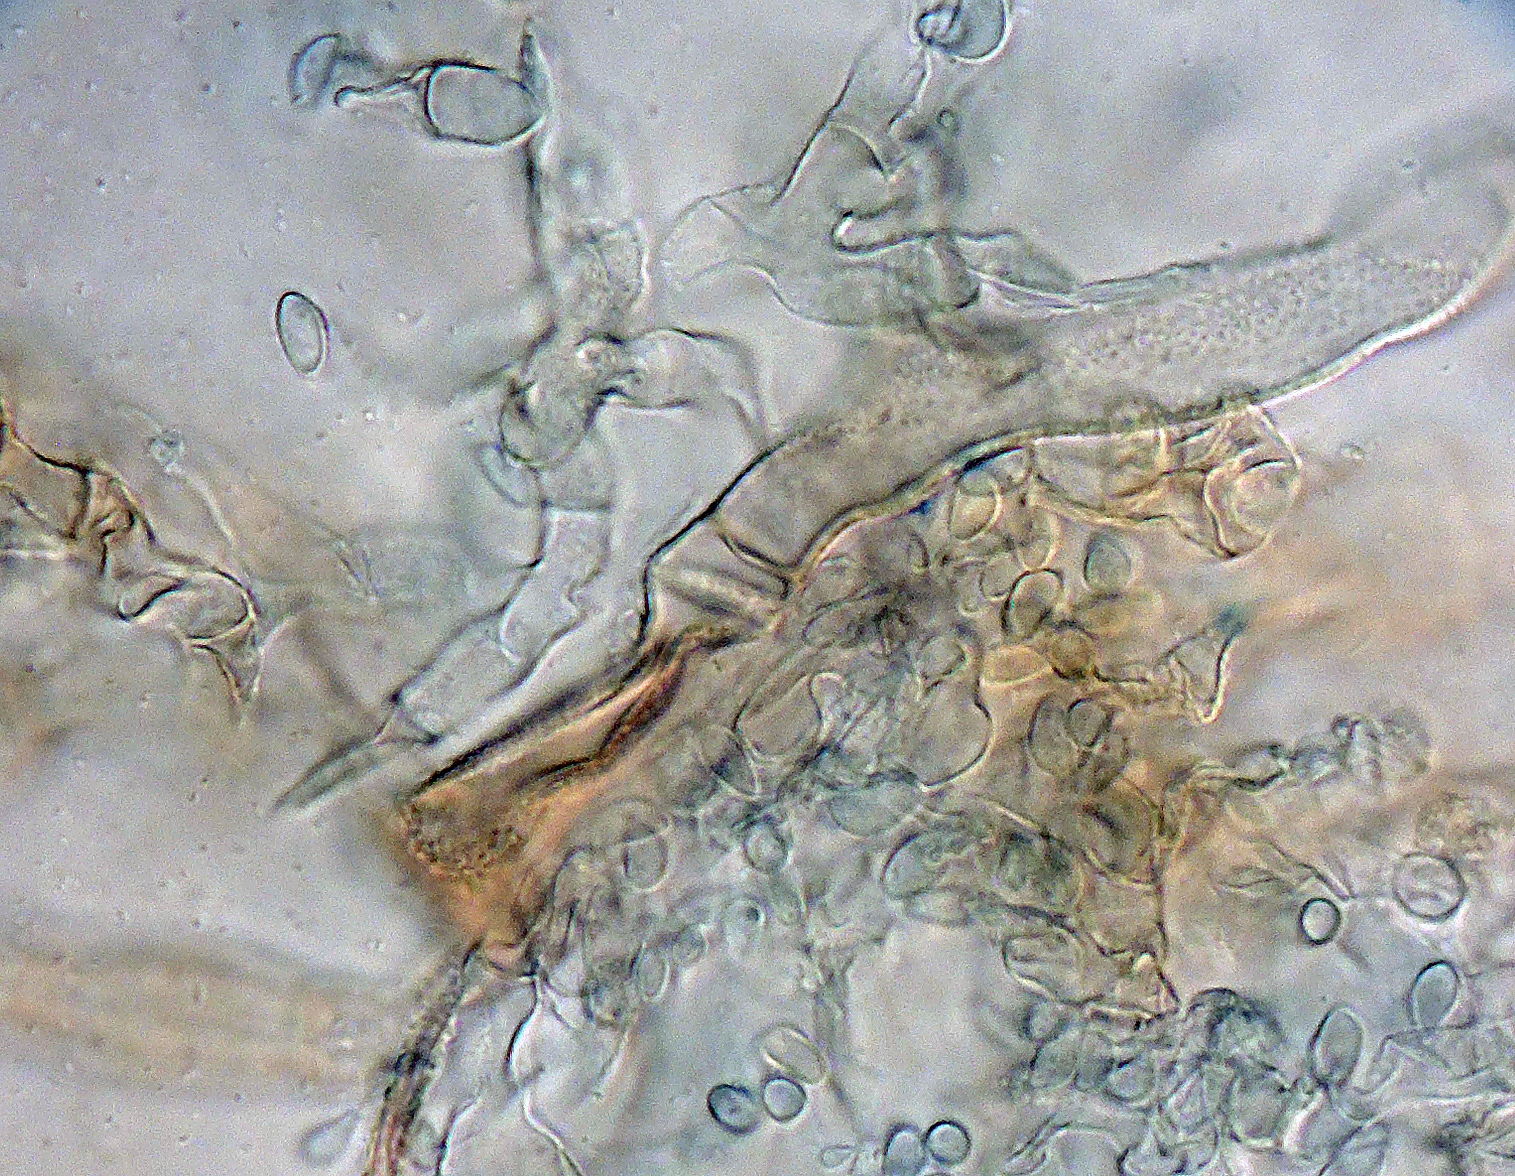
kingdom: Fungi
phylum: Basidiomycota
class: Agaricomycetes
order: Cantharellales
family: Botryobasidiaceae
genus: Botryobasidium
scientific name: Botryobasidium pruinatum
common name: ruhyfet spindhinde
